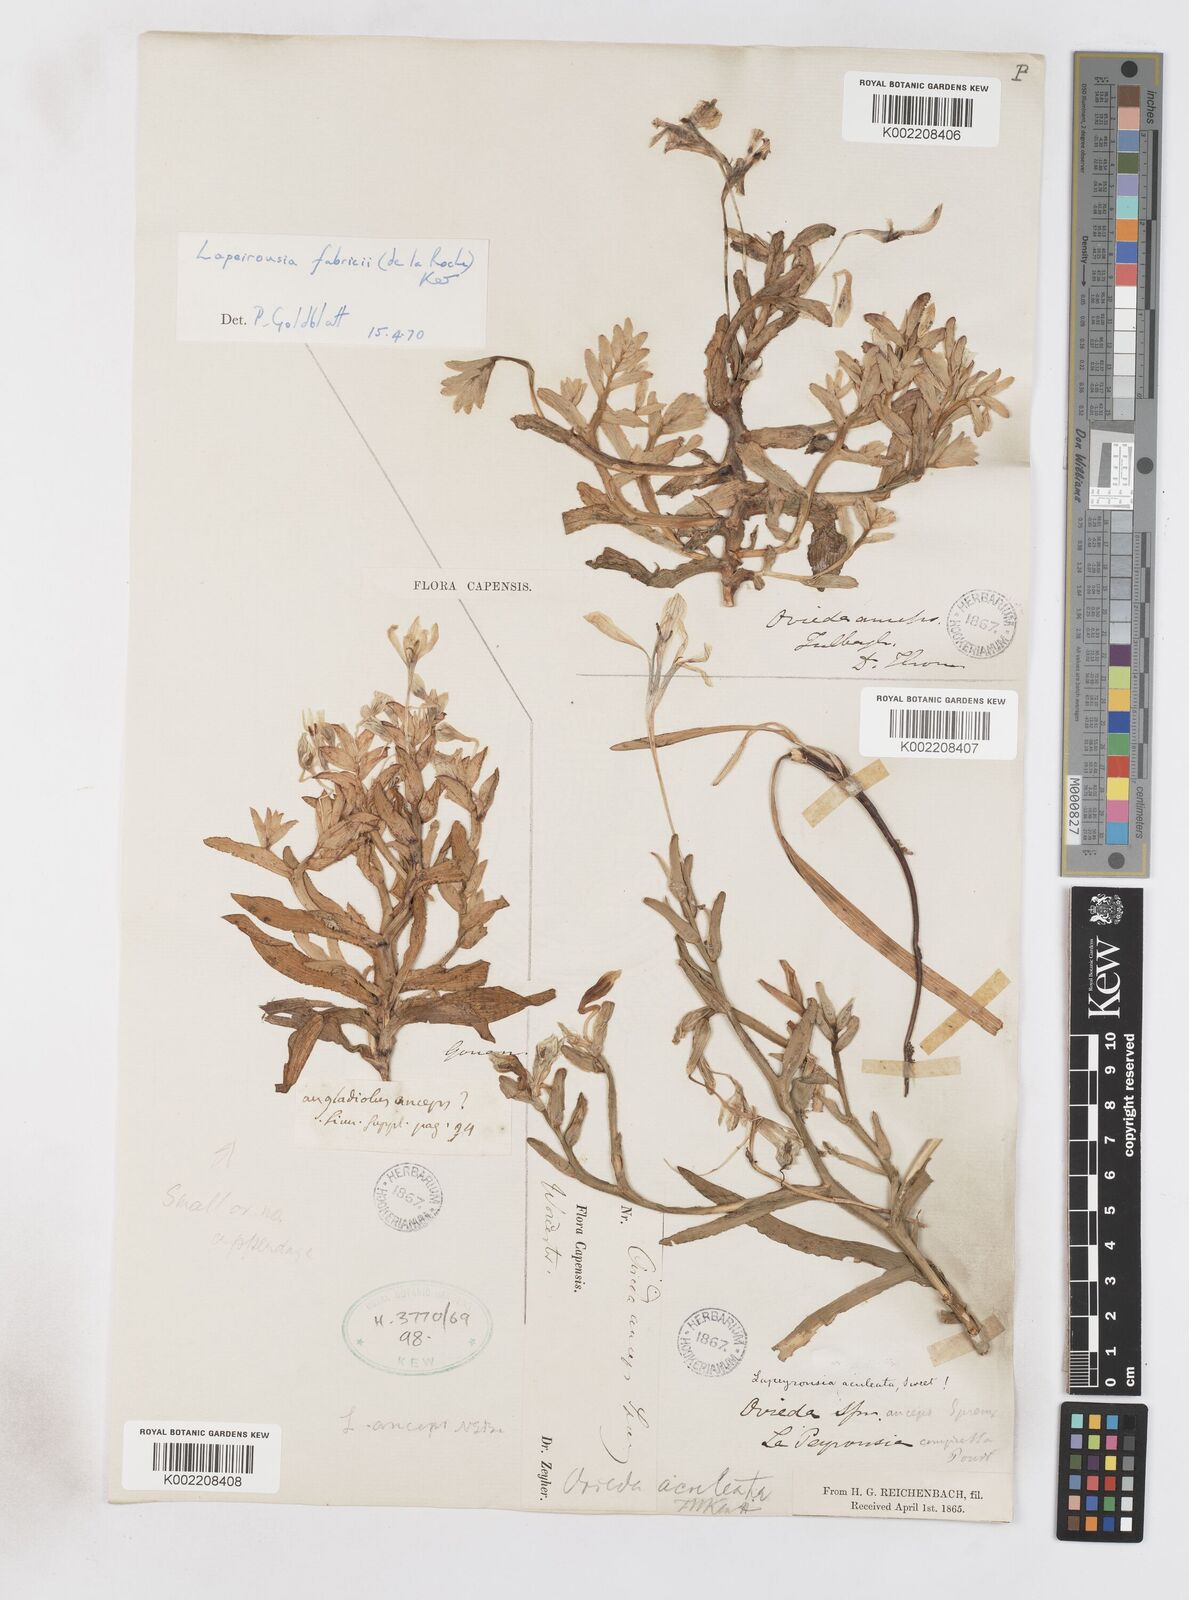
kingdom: Plantae
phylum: Tracheophyta
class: Liliopsida
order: Asparagales
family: Iridaceae
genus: Lapeirousia
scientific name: Lapeirousia fabricii
